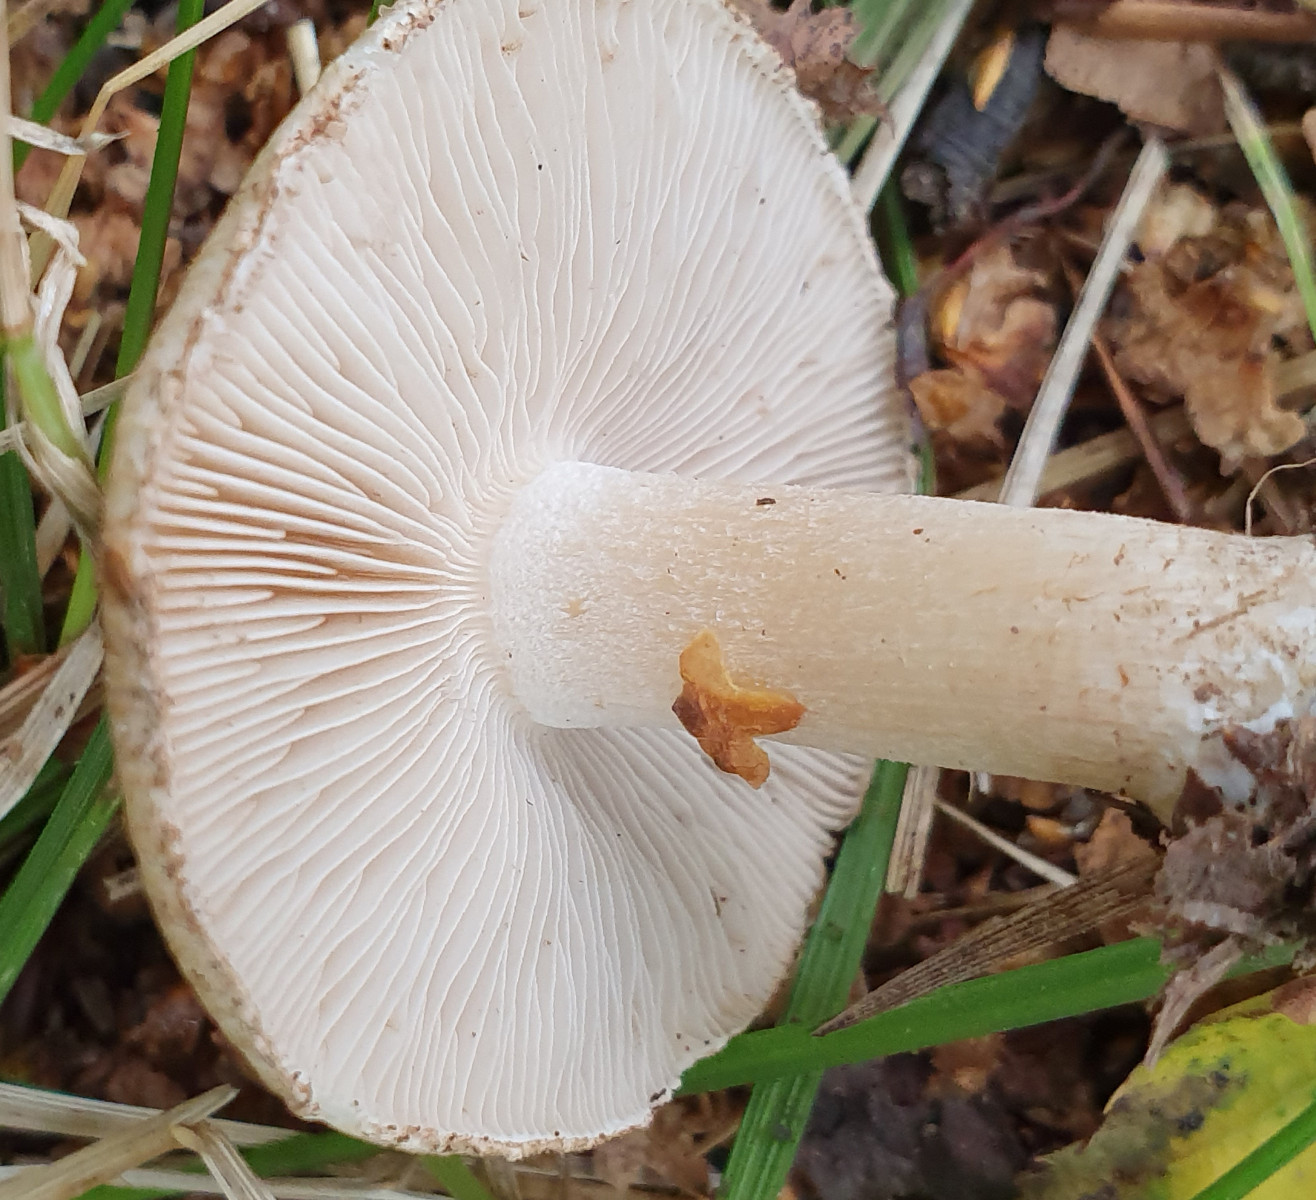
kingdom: Fungi
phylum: Basidiomycota
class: Agaricomycetes
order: Agaricales
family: Inocybaceae
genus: Inocybe
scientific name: Inocybe corydalina
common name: grønpuklet trævlhat
